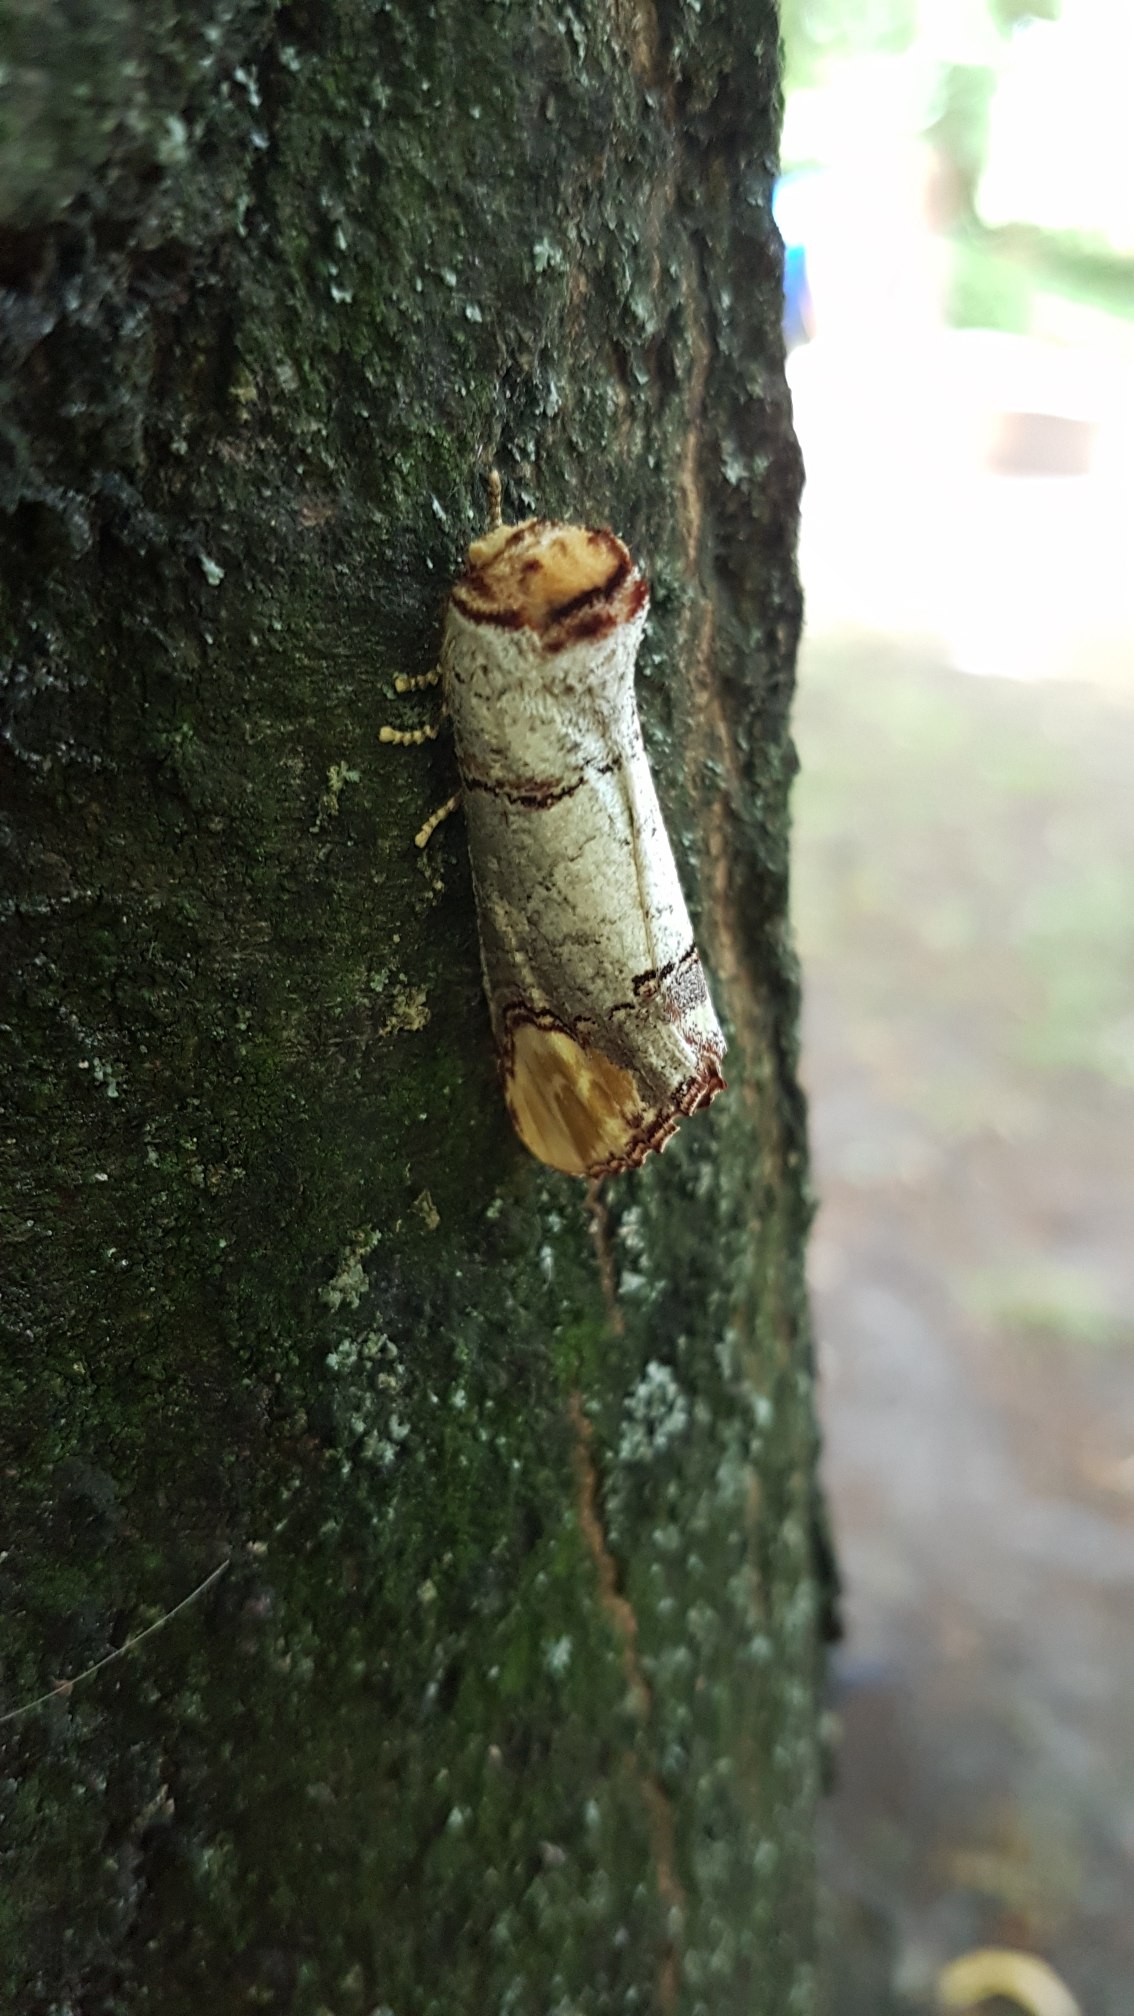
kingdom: Animalia
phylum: Arthropoda
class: Insecta
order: Lepidoptera
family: Notodontidae
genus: Phalera
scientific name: Phalera bucephala
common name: Måneplet
